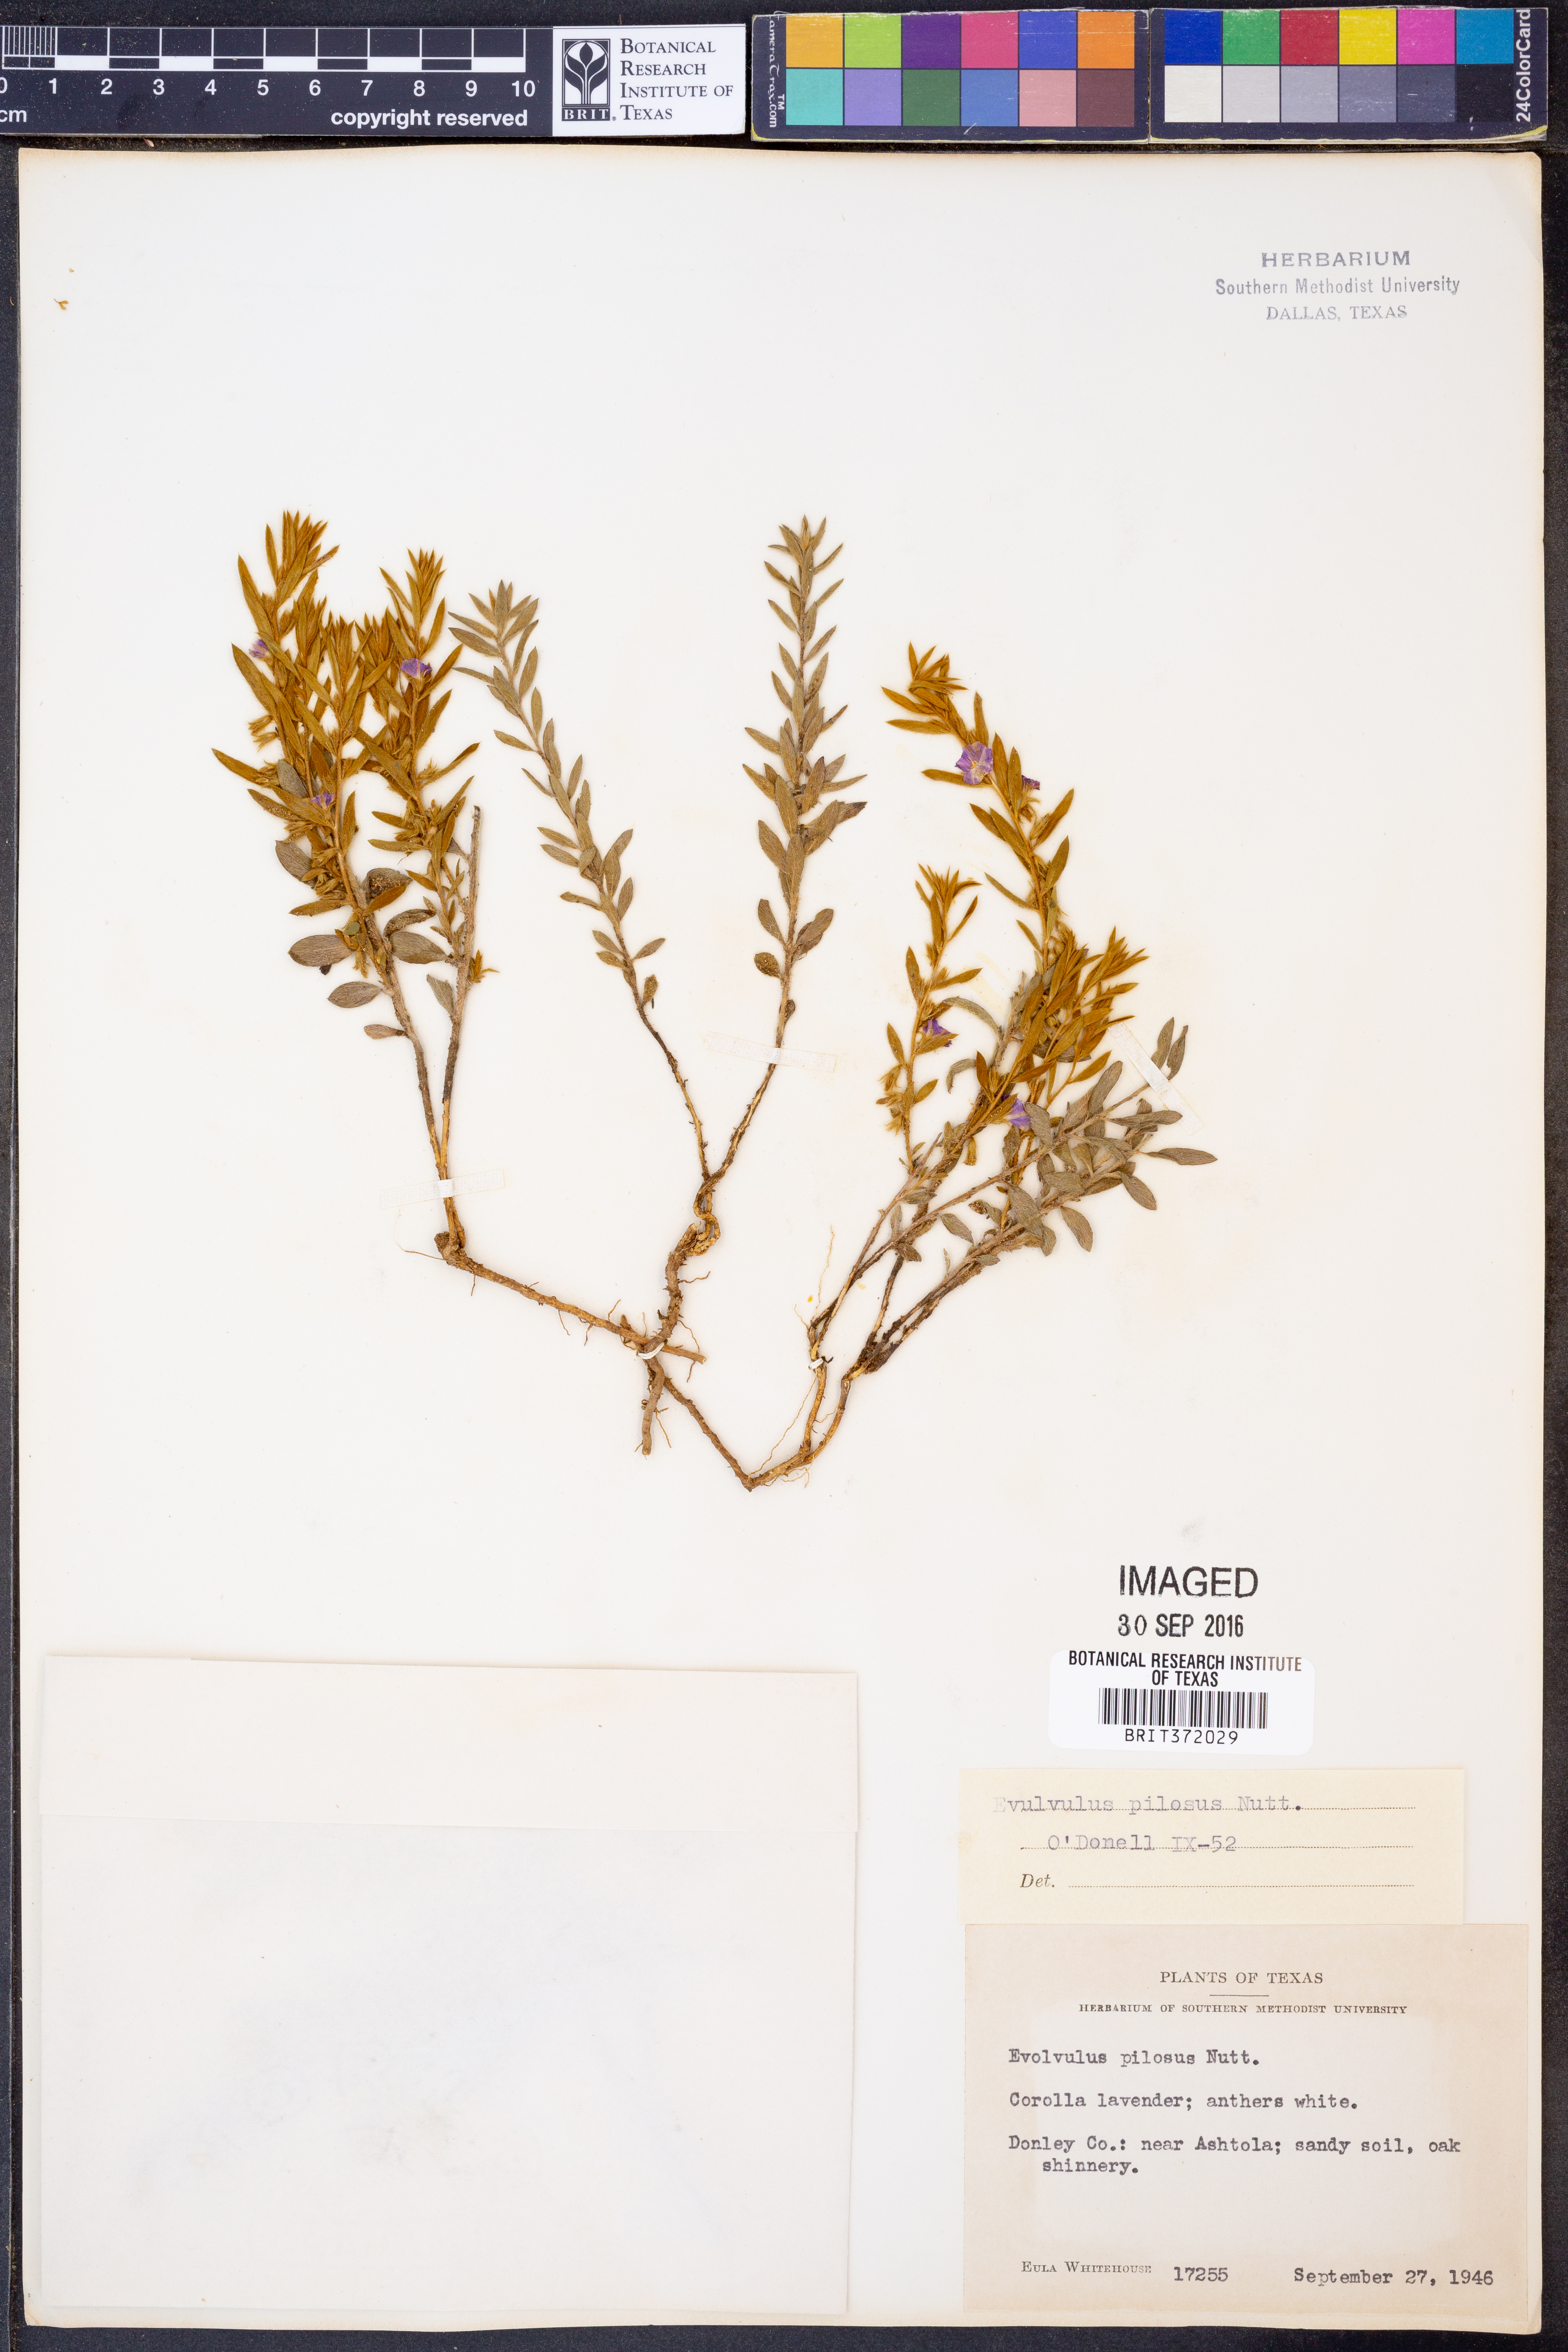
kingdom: Plantae
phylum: Tracheophyta
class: Magnoliopsida
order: Solanales
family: Convolvulaceae
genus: Evolvulus
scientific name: Evolvulus nuttallianus
